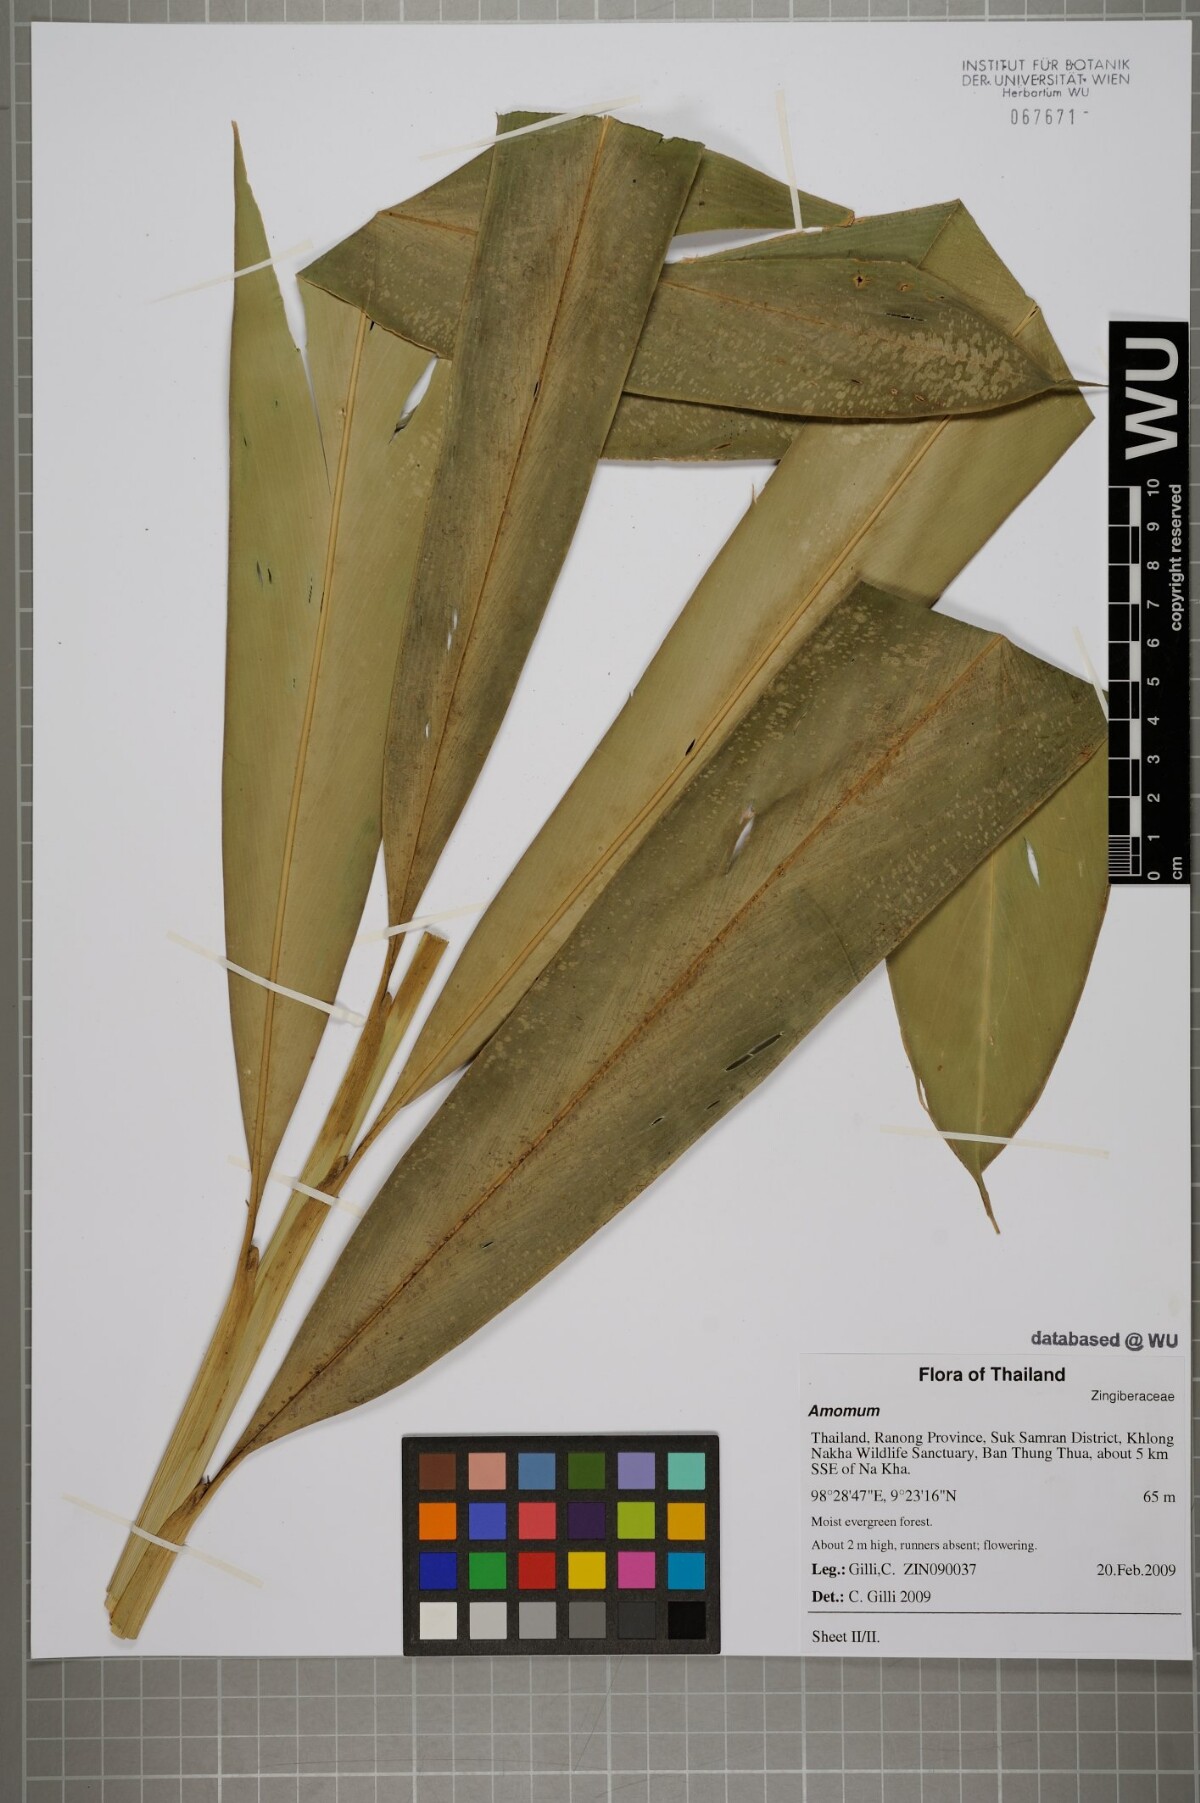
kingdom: Plantae
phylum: Tracheophyta
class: Liliopsida
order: Zingiberales
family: Zingiberaceae
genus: Amomum
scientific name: Amomum
